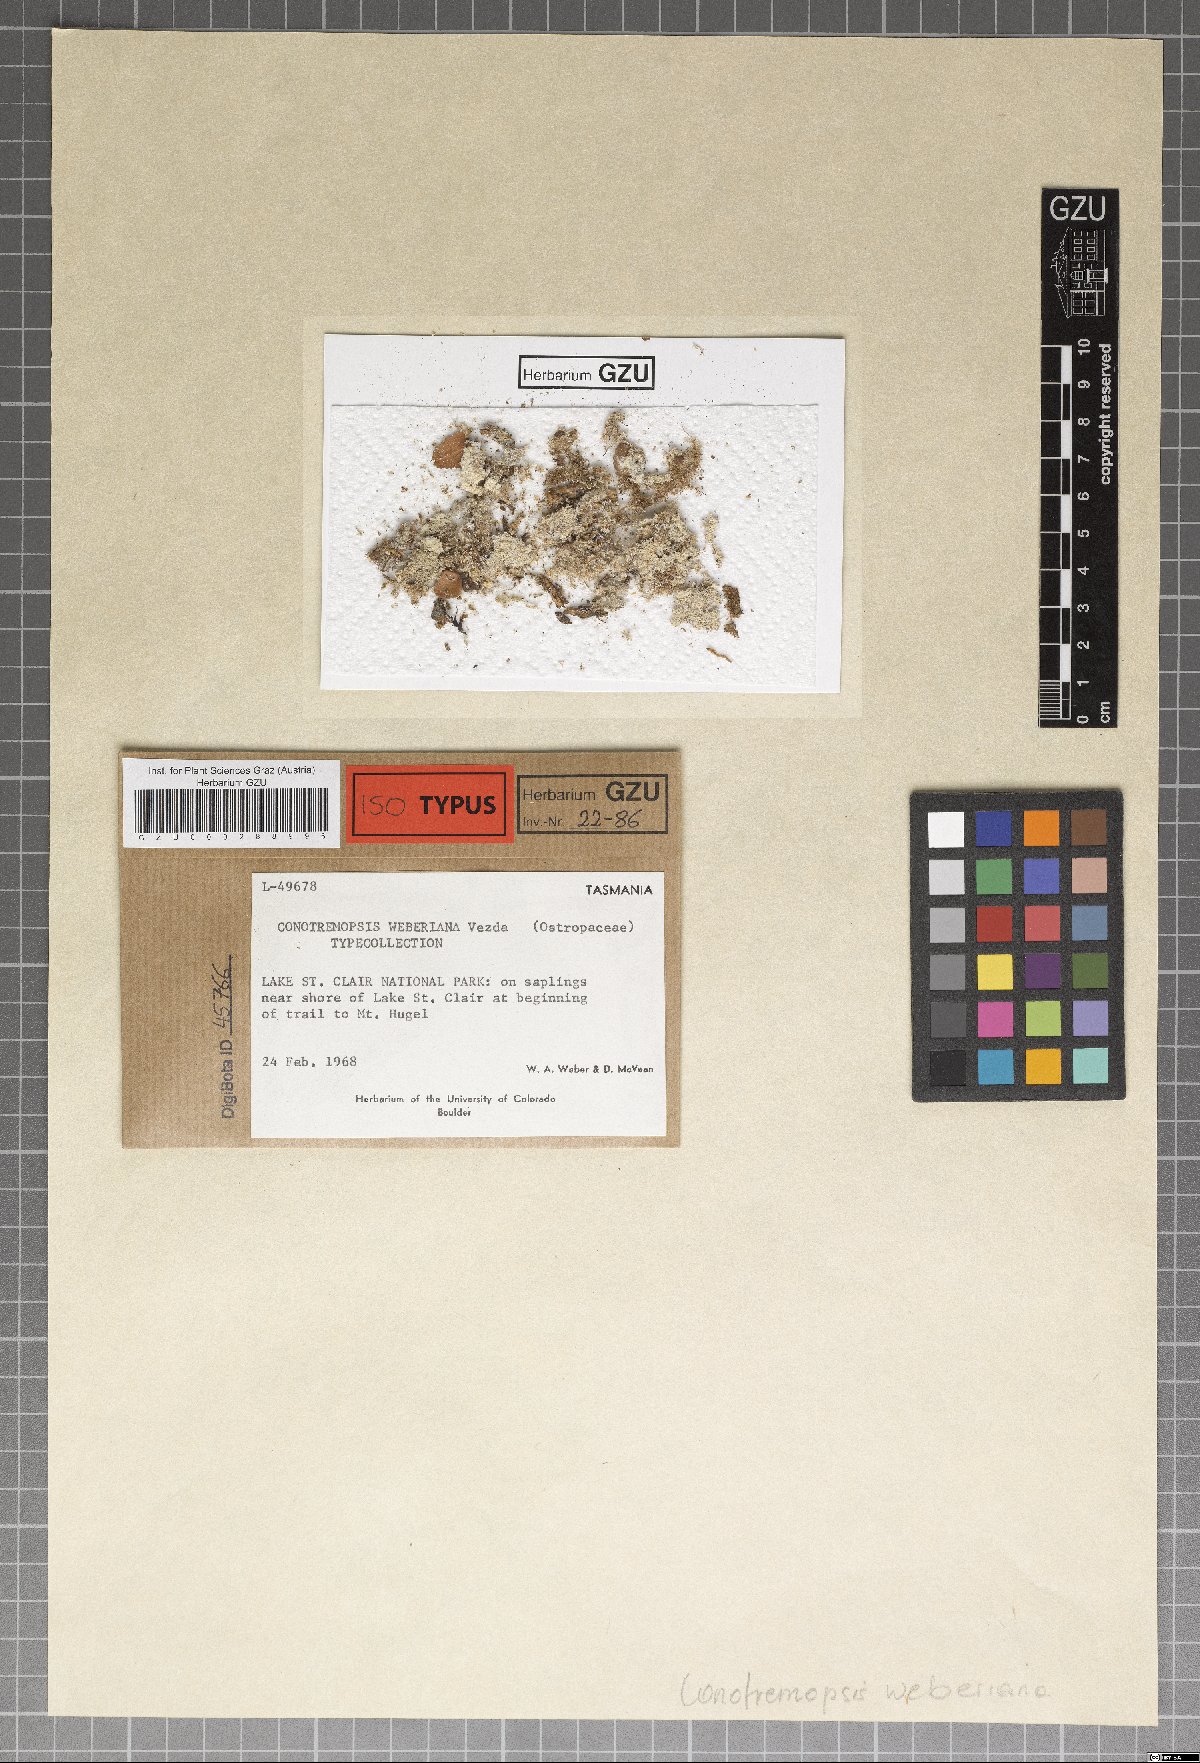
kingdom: Fungi
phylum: Ascomycota
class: Lecanoromycetes
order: Ostropales
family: Stictidaceae
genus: Conotremopsis
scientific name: Conotremopsis weberiana
